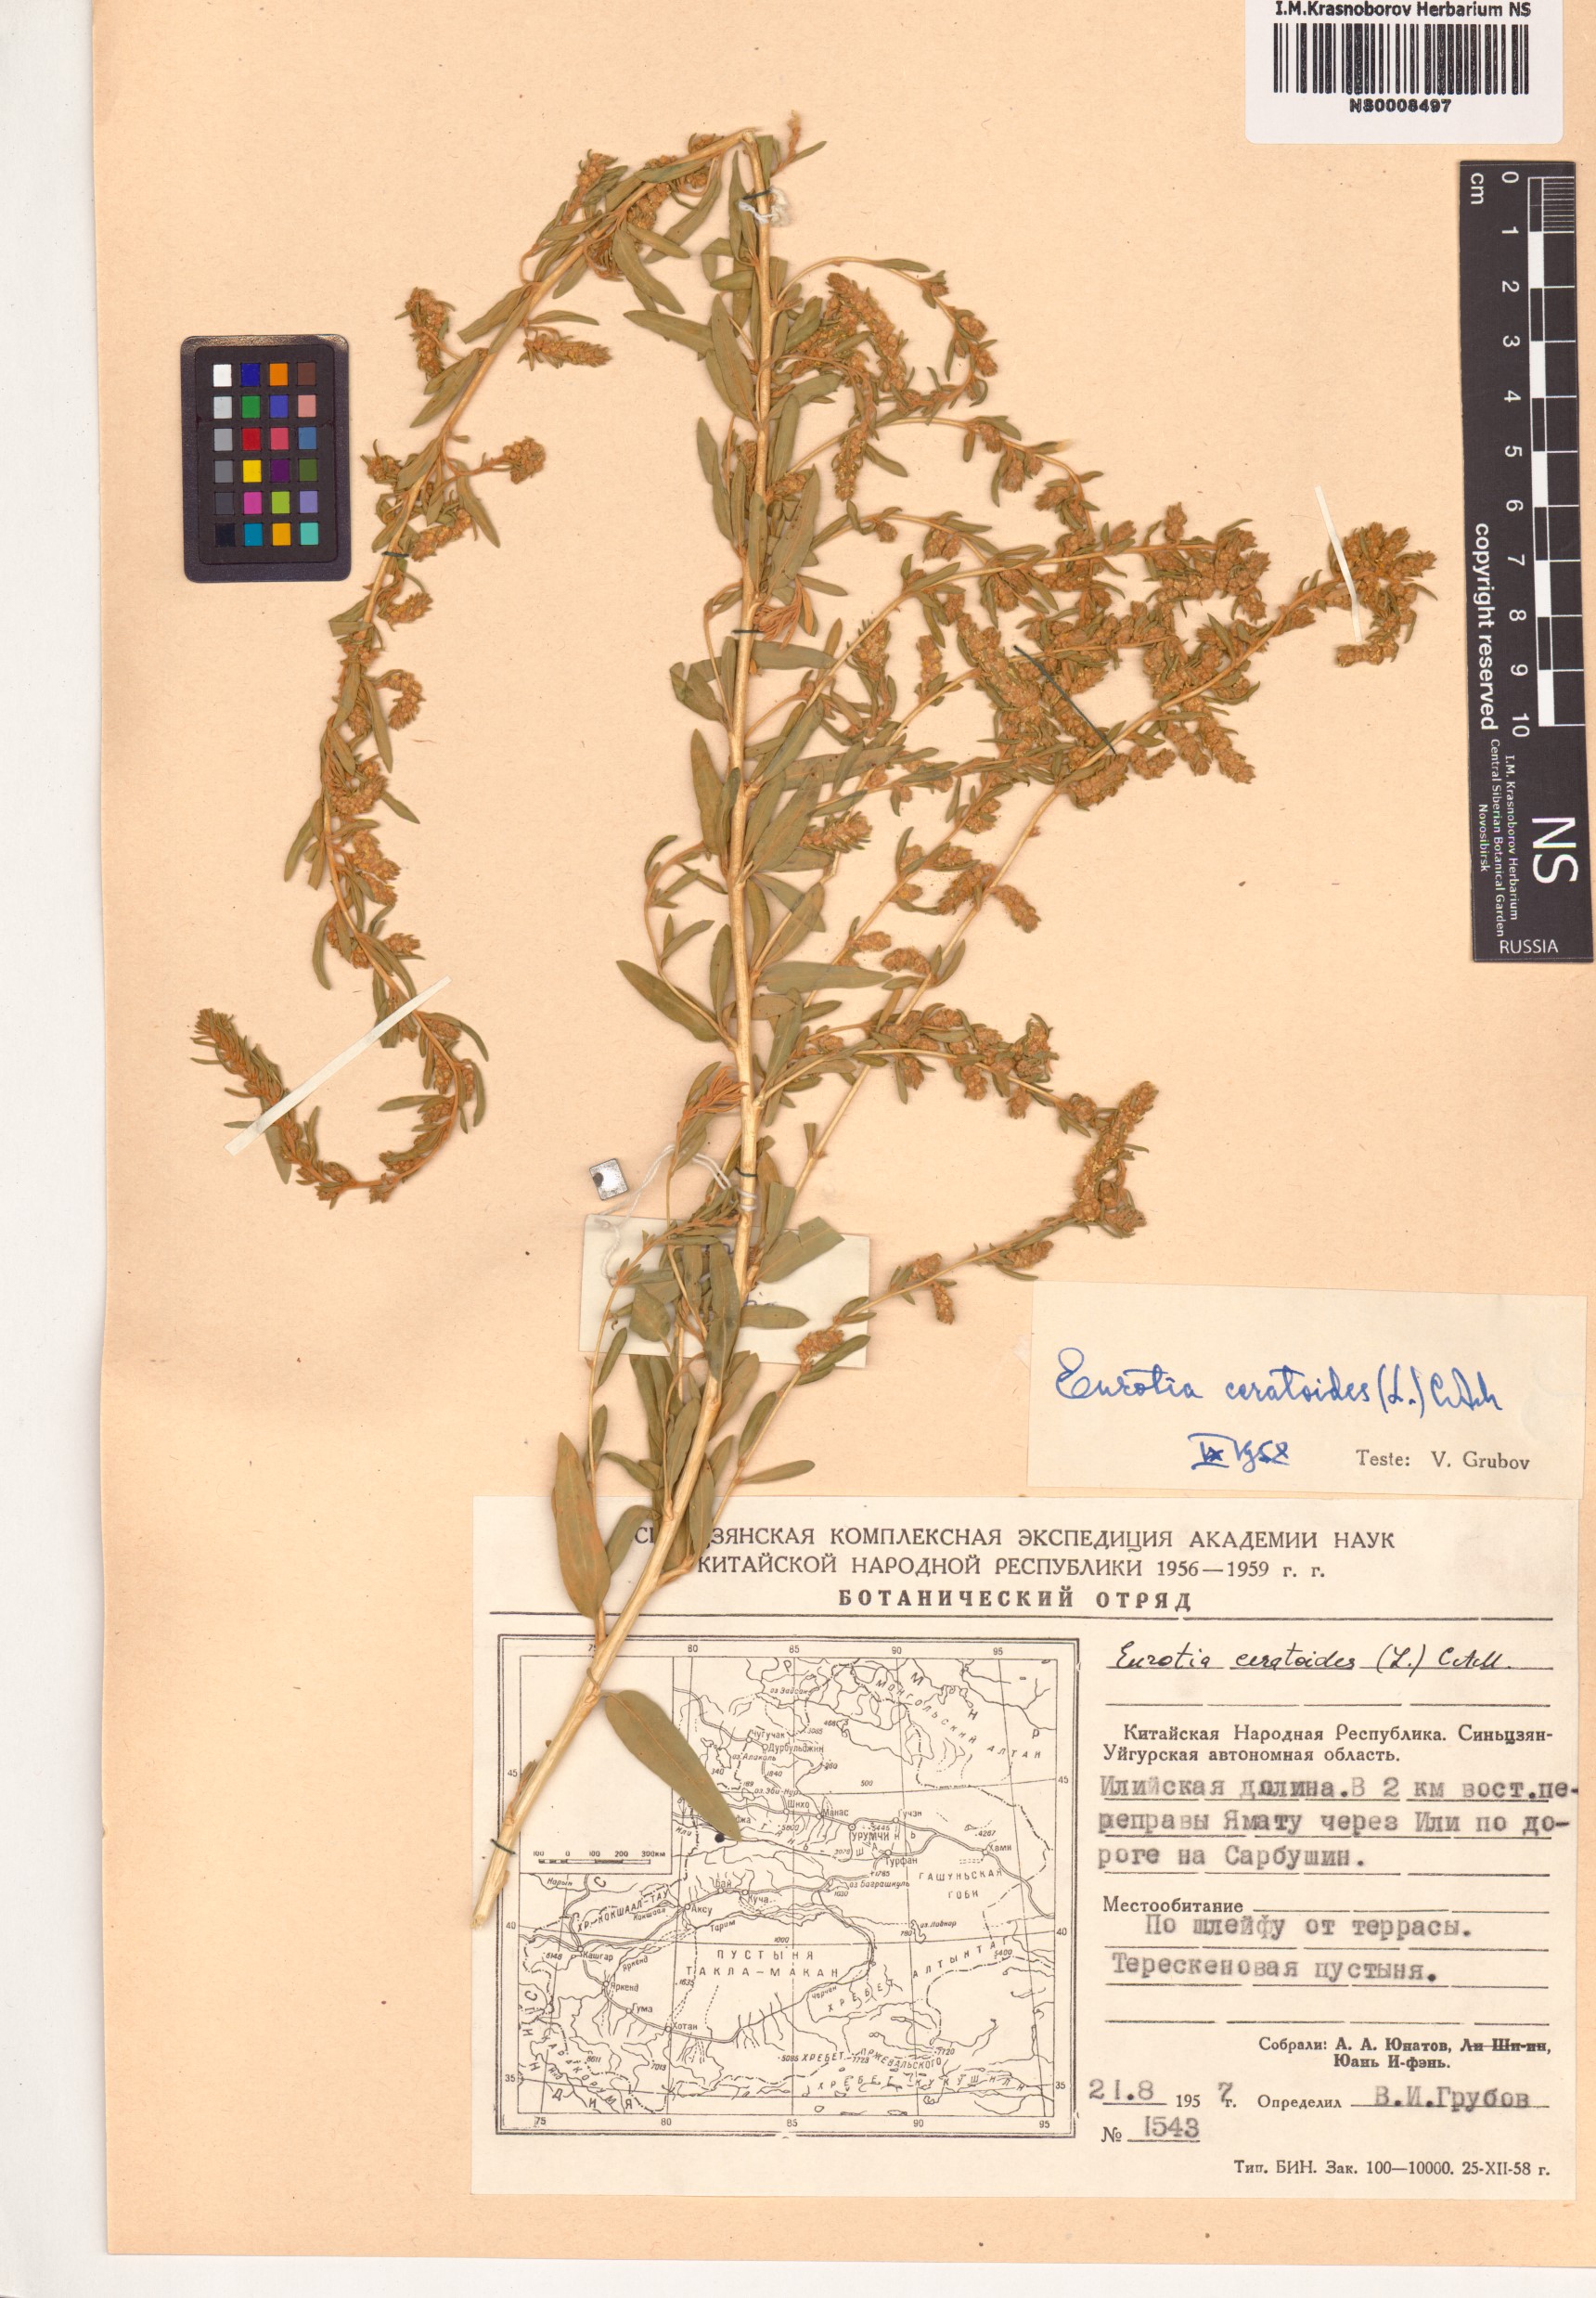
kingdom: Plantae
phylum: Tracheophyta
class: Magnoliopsida
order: Caryophyllales
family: Amaranthaceae
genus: Krascheninnikovia
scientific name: Krascheninnikovia ceratoides
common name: Pamirian winterfat
